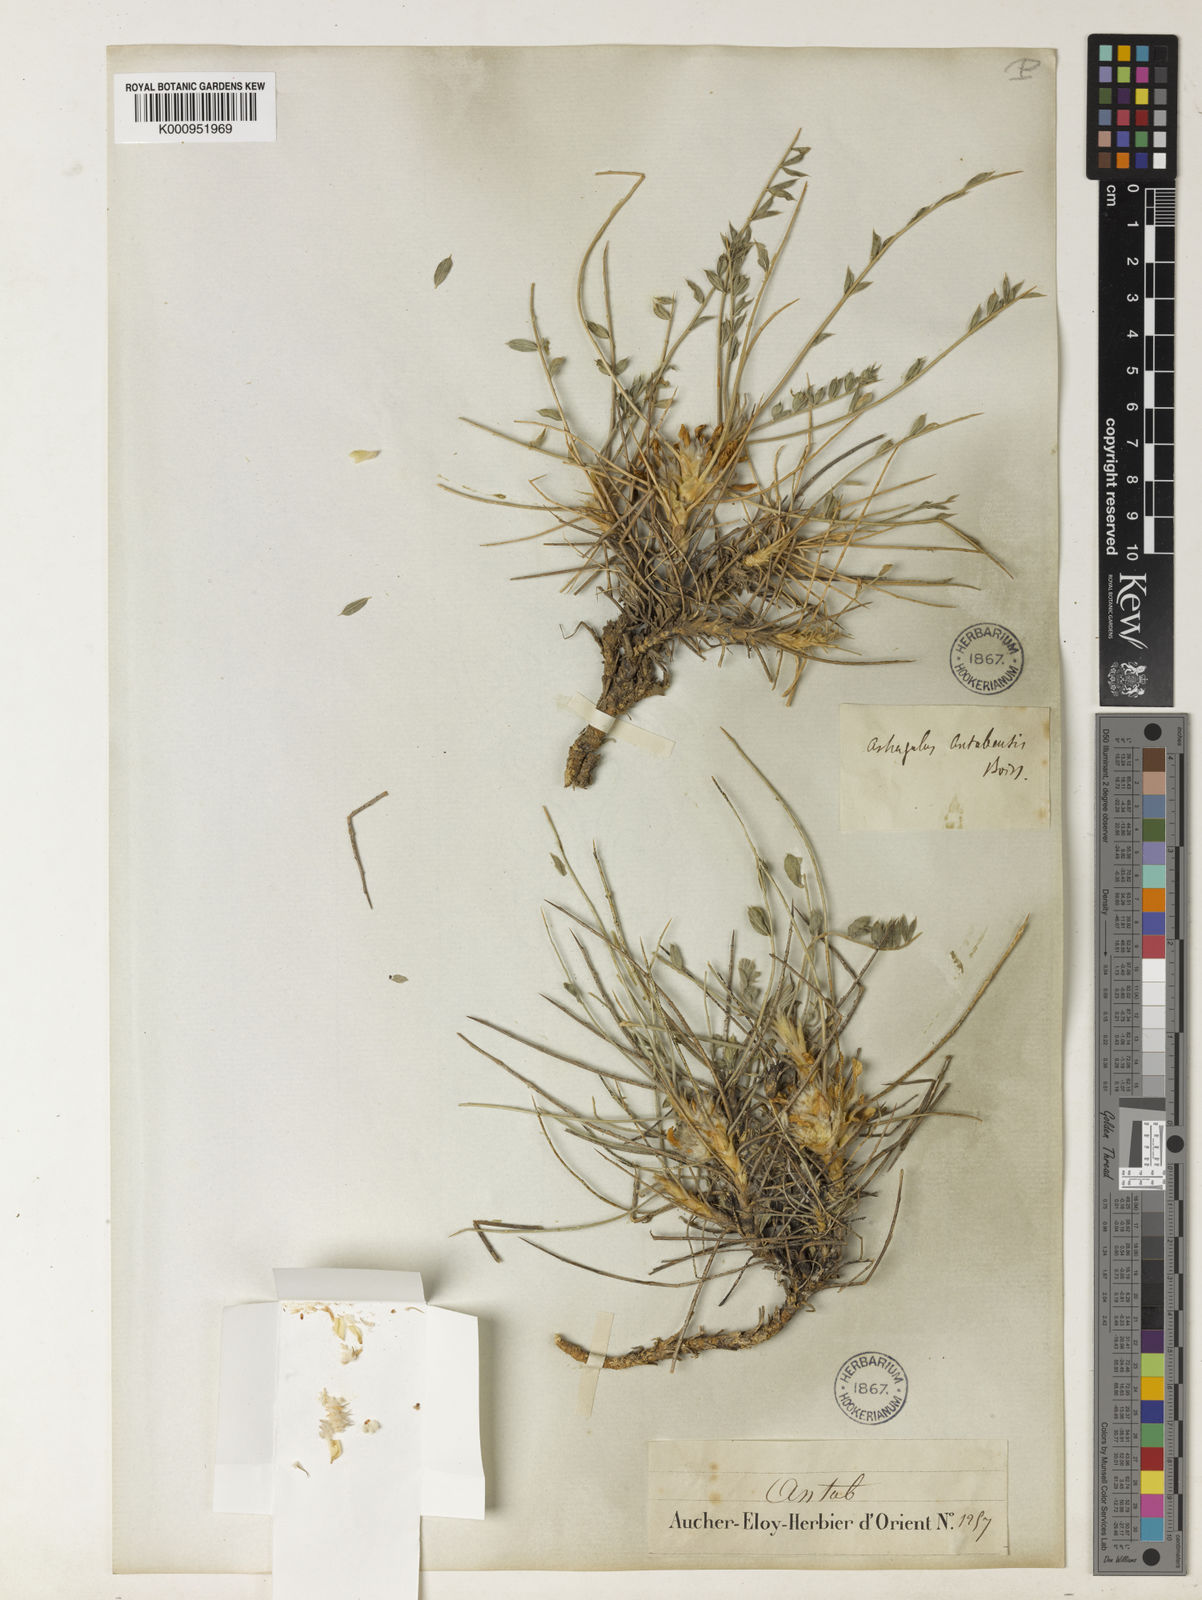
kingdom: Plantae
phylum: Tracheophyta
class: Magnoliopsida
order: Fabales
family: Fabaceae
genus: Astragalus
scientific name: Astragalus antabicus
